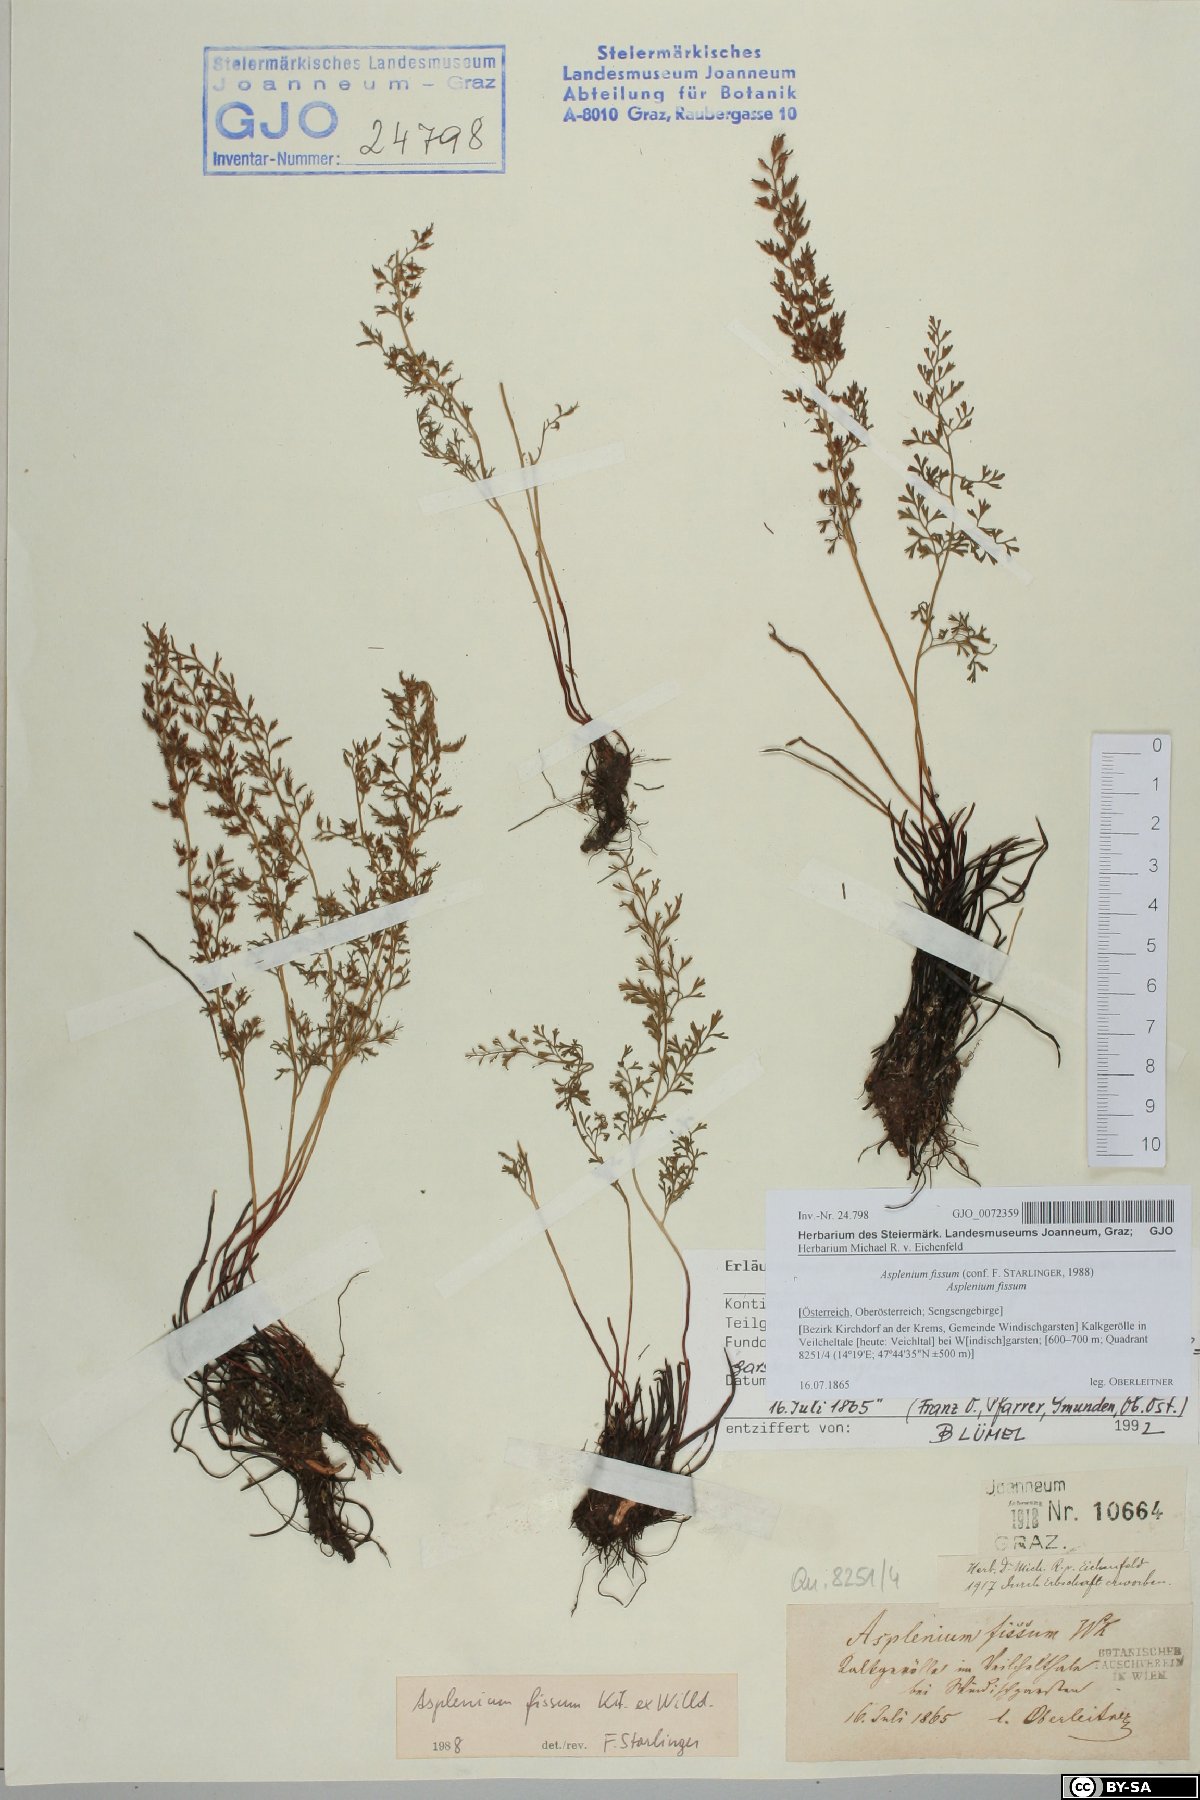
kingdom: Plantae
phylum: Tracheophyta
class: Polypodiopsida
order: Polypodiales
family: Aspleniaceae
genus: Asplenium
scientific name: Asplenium fissum
